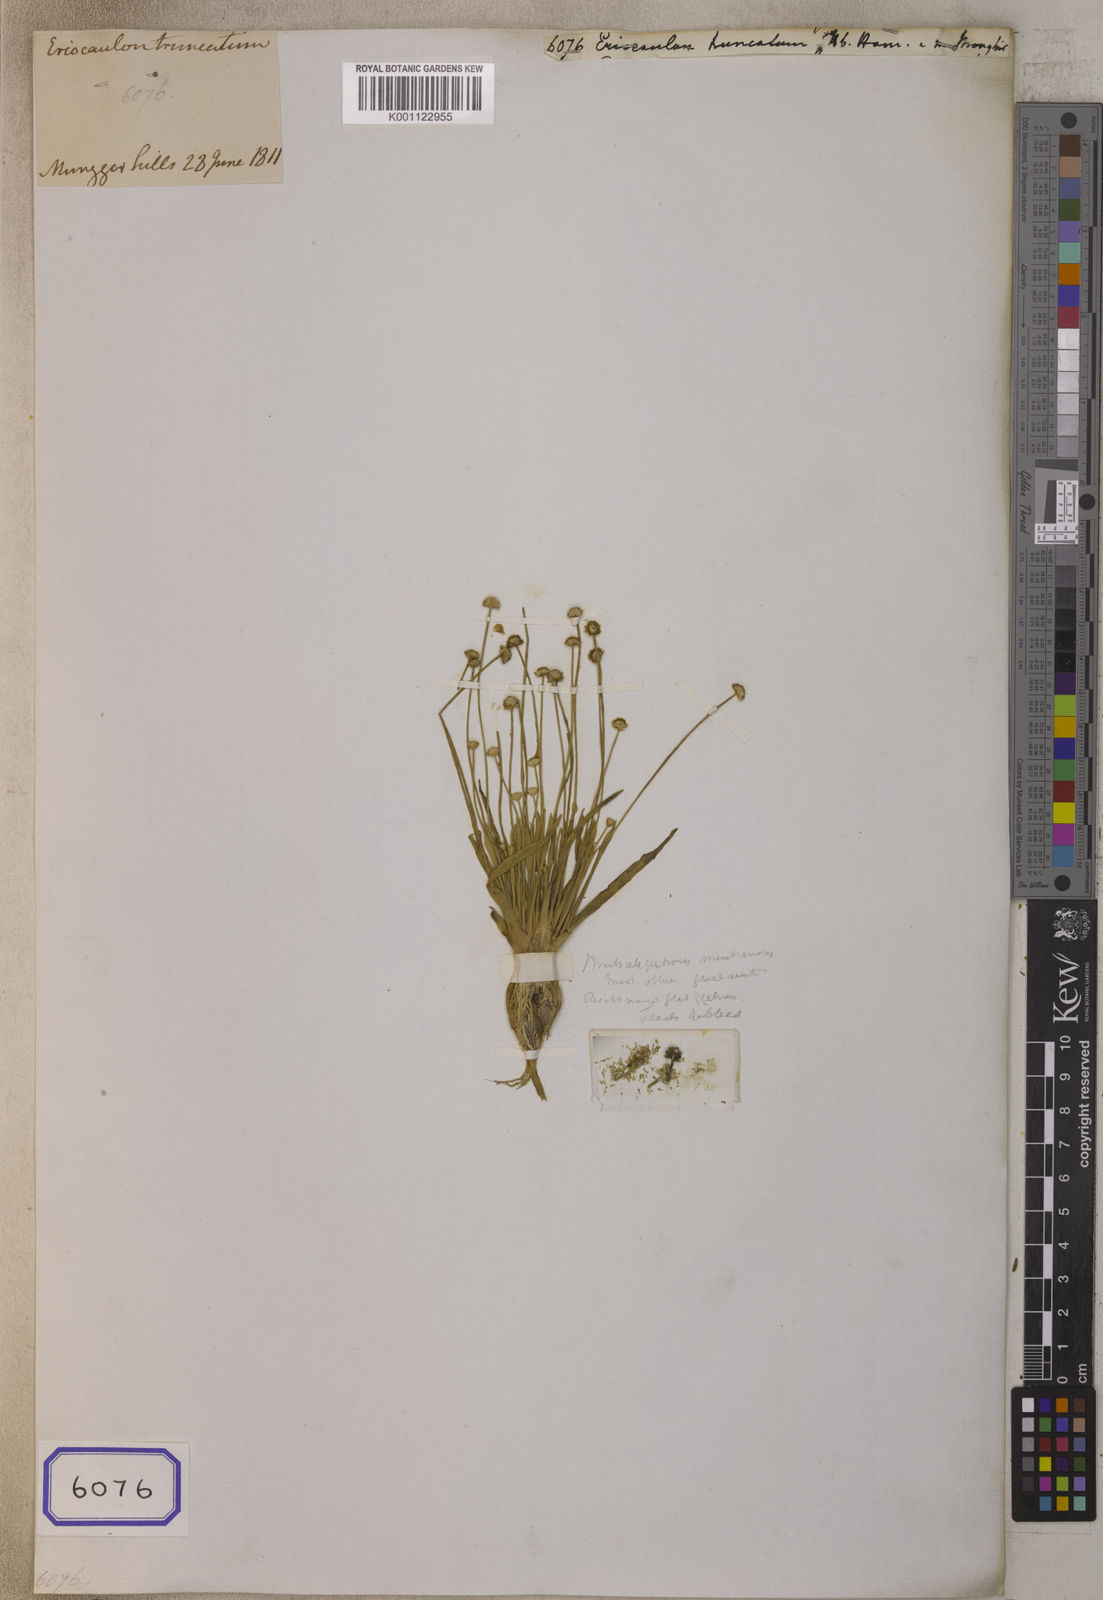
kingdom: Plantae
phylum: Tracheophyta
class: Liliopsida
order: Poales
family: Eriocaulaceae
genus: Eriocaulon
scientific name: Eriocaulon truncatum
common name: Short pipe-wort
